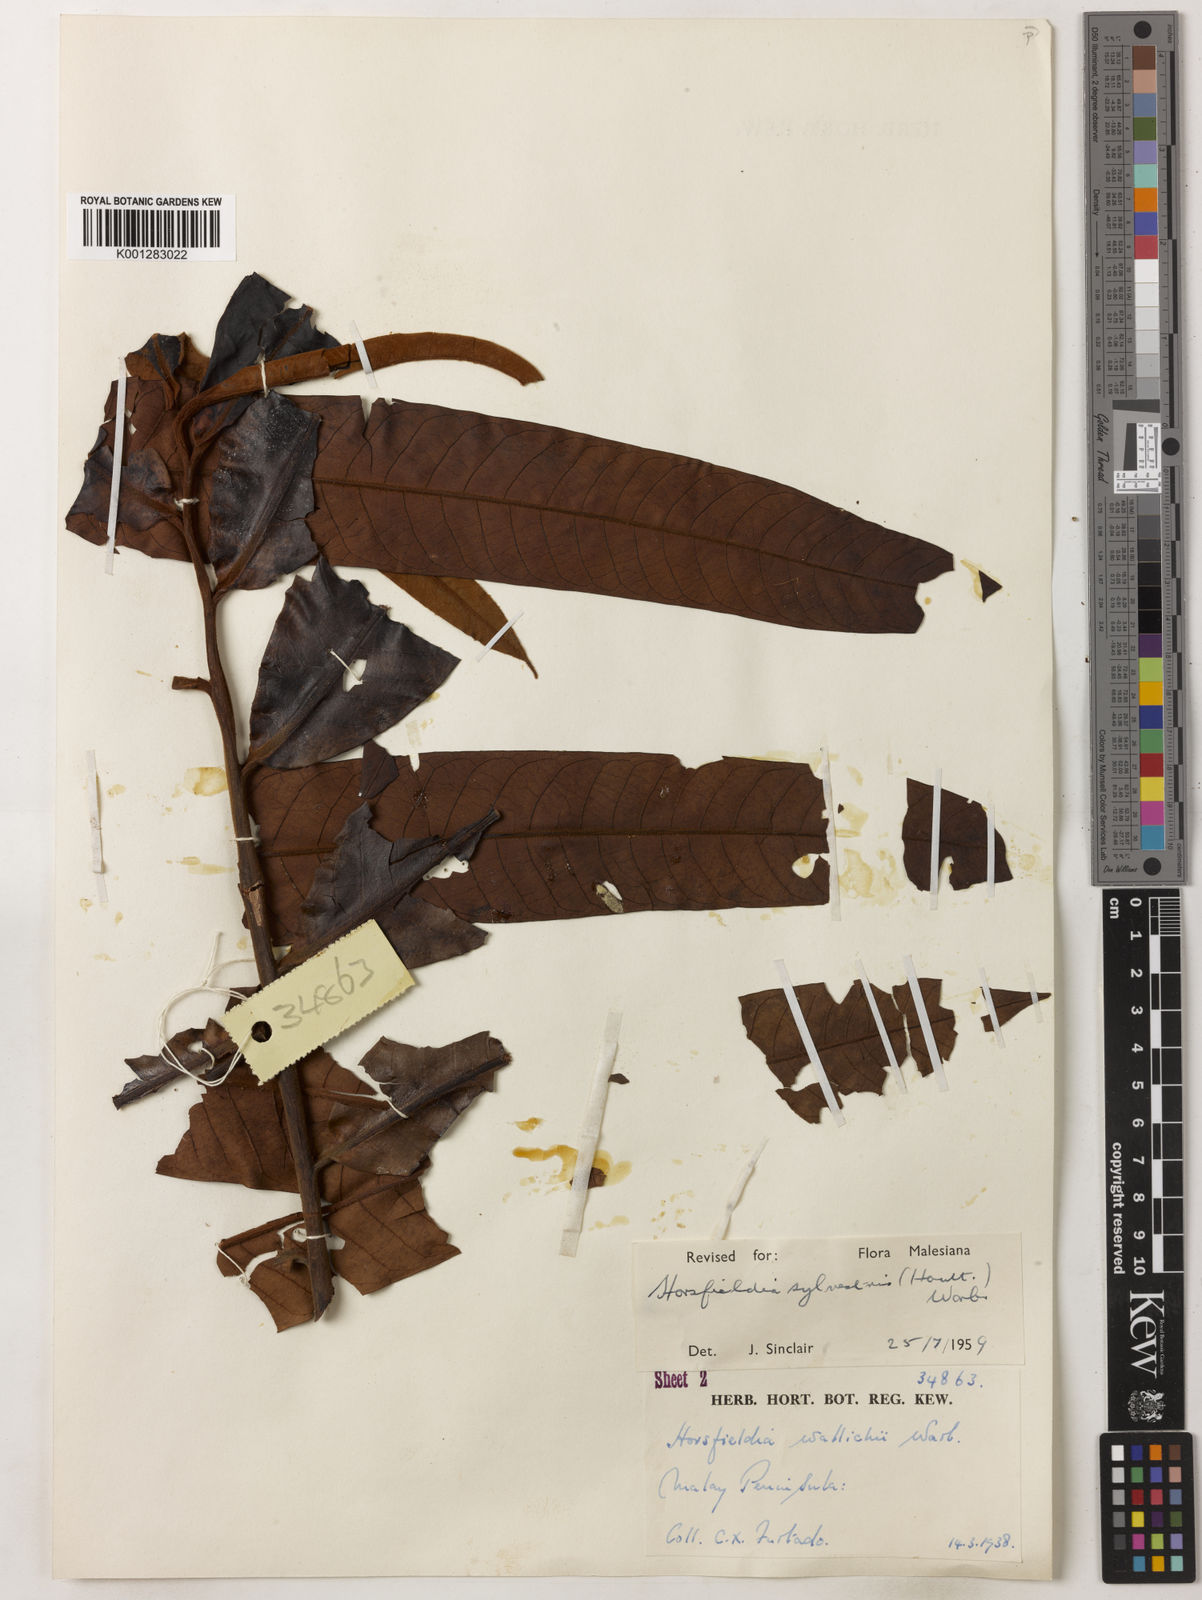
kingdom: Plantae
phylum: Tracheophyta
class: Magnoliopsida
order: Magnoliales
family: Myristicaceae
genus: Horsfieldia
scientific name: Horsfieldia sylvestris
